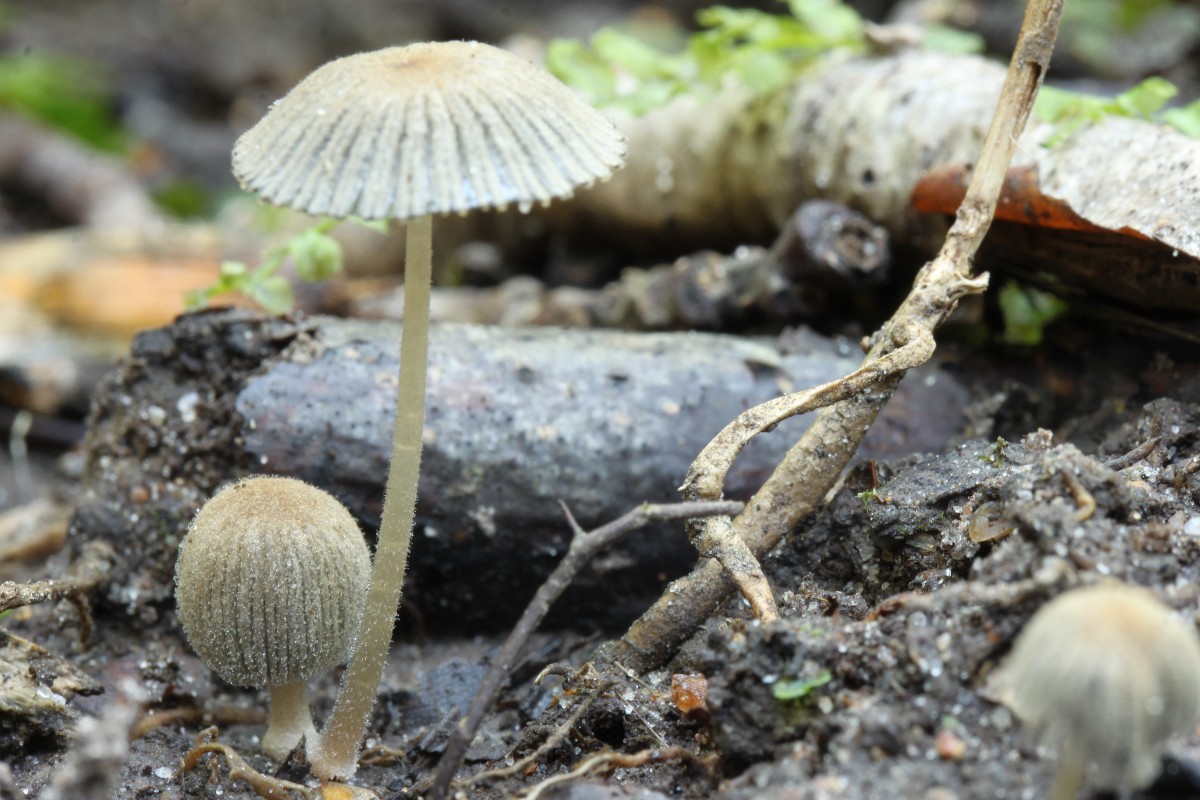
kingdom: Fungi
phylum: Basidiomycota
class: Agaricomycetes
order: Agaricales
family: Psathyrellaceae
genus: Coprinellus
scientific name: Coprinellus verrucispermus
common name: vortesporet blækhat
